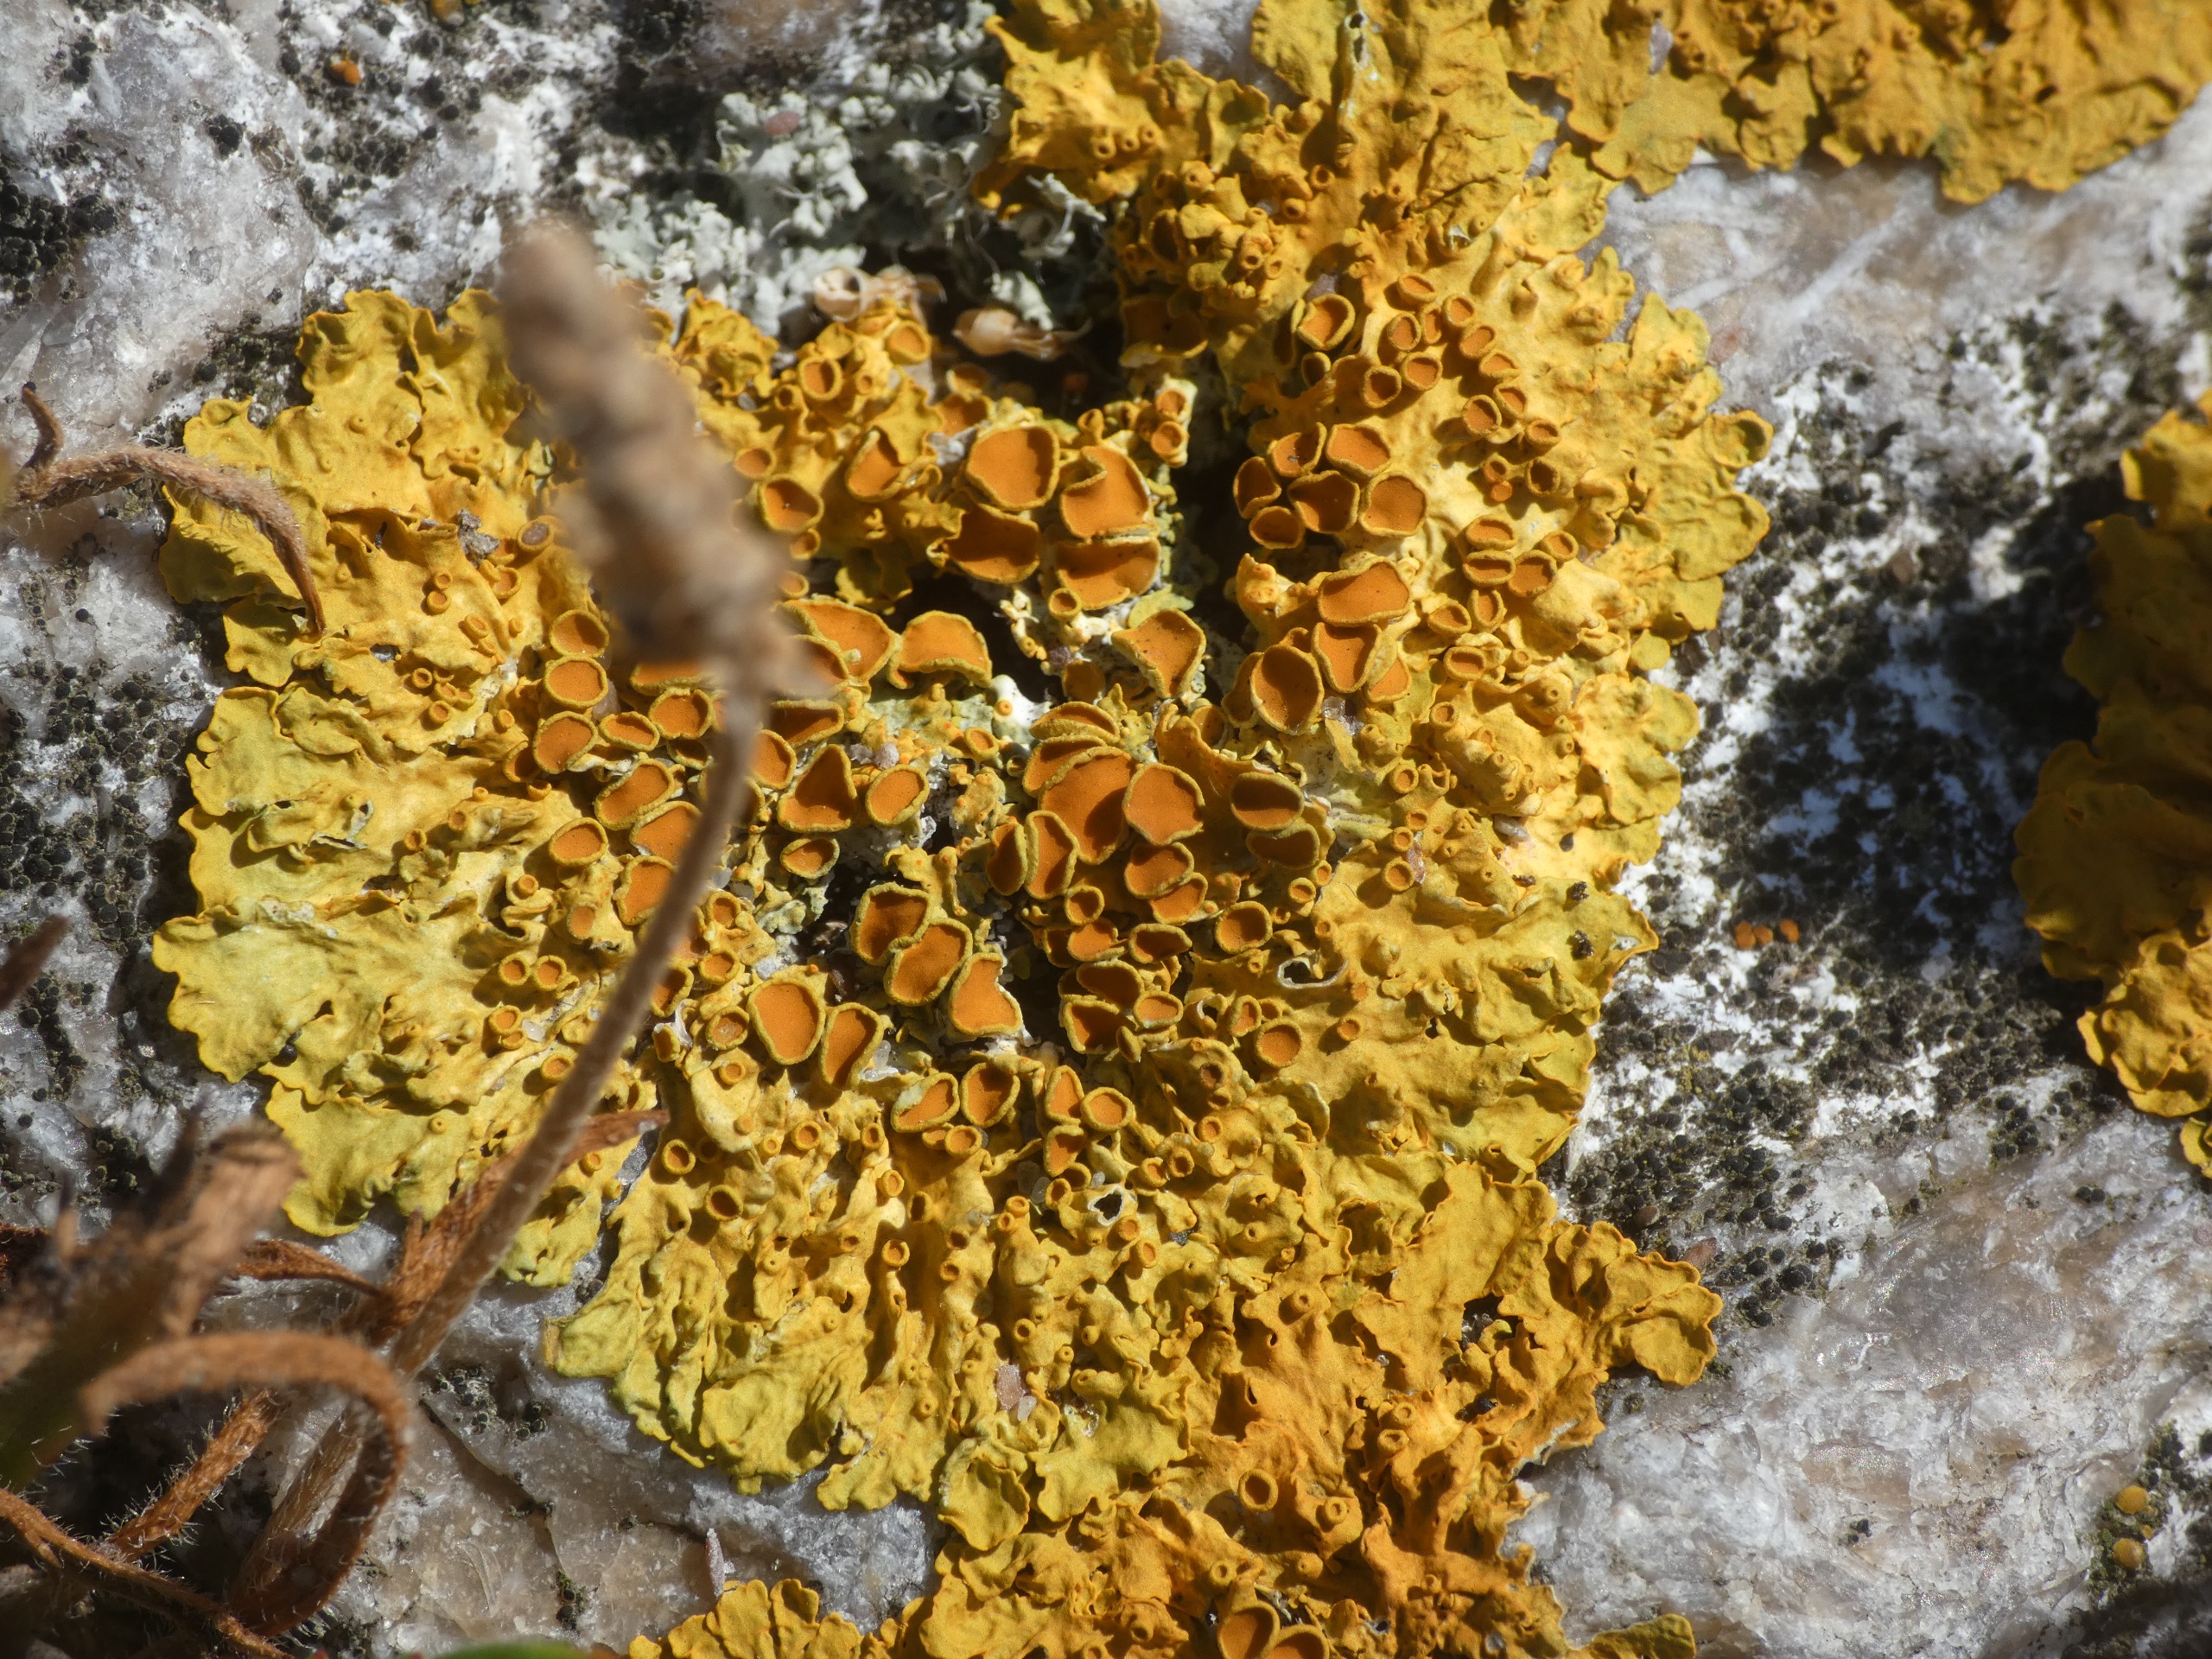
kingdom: Fungi
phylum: Ascomycota
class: Lecanoromycetes
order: Teloschistales
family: Teloschistaceae
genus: Xanthoria
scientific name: Xanthoria parietina
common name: Almindelig væggelav
